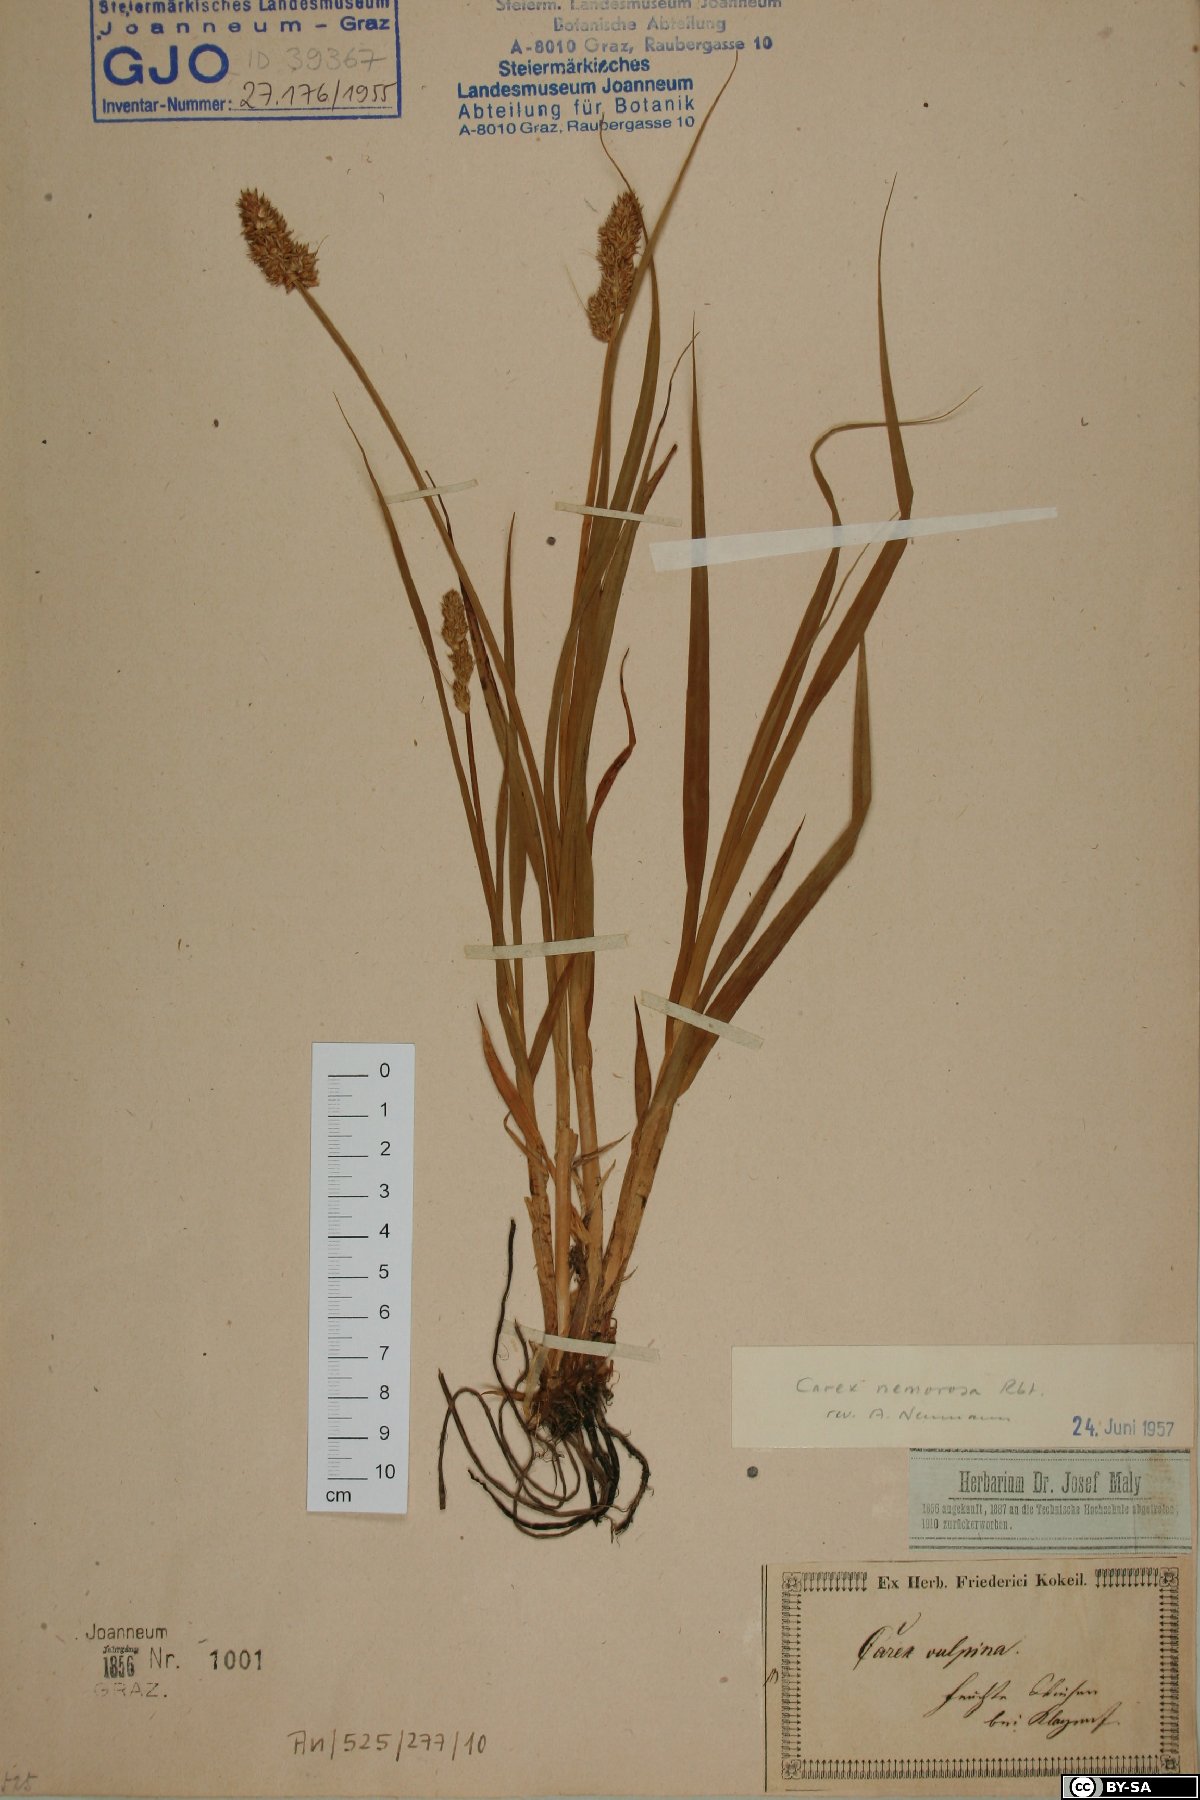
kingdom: Plantae
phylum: Tracheophyta
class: Liliopsida
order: Poales
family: Cyperaceae
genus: Carex
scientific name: Carex otrubae
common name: False fox-sedge
